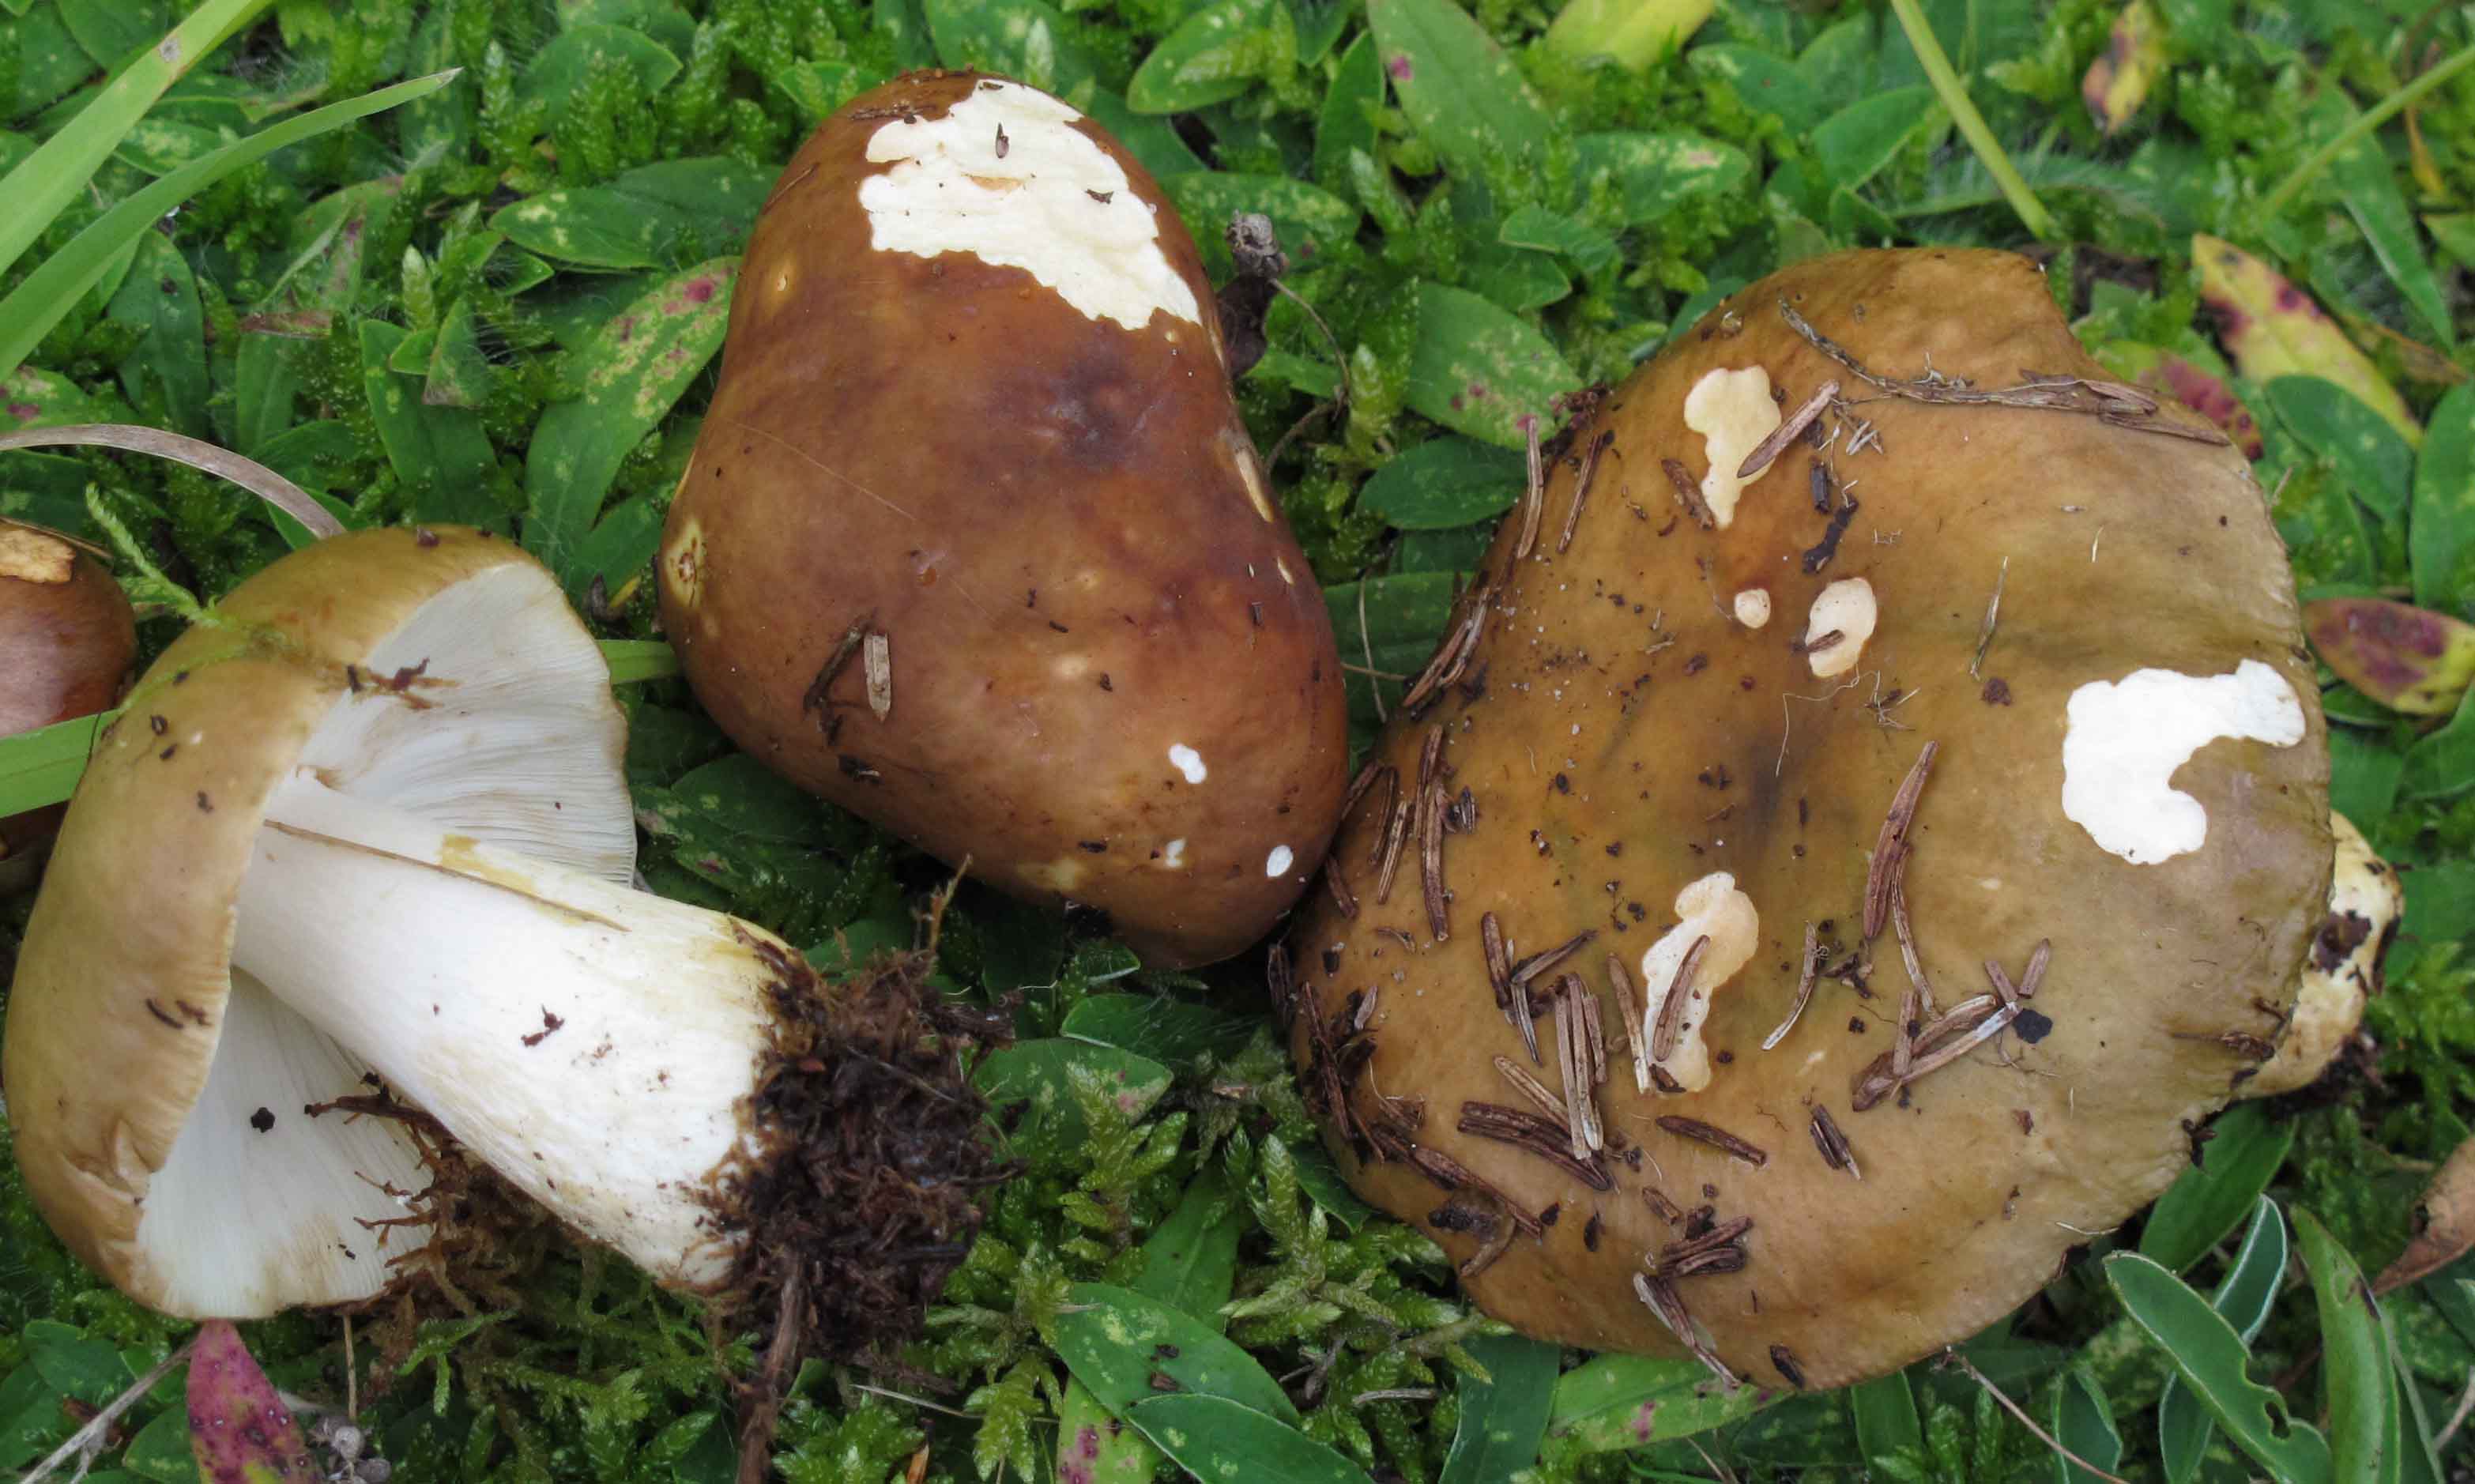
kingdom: Fungi
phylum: Basidiomycota
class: Agaricomycetes
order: Russulales
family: Russulaceae
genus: Russula
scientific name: Russula clavipes
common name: olivengrøn skørhat
